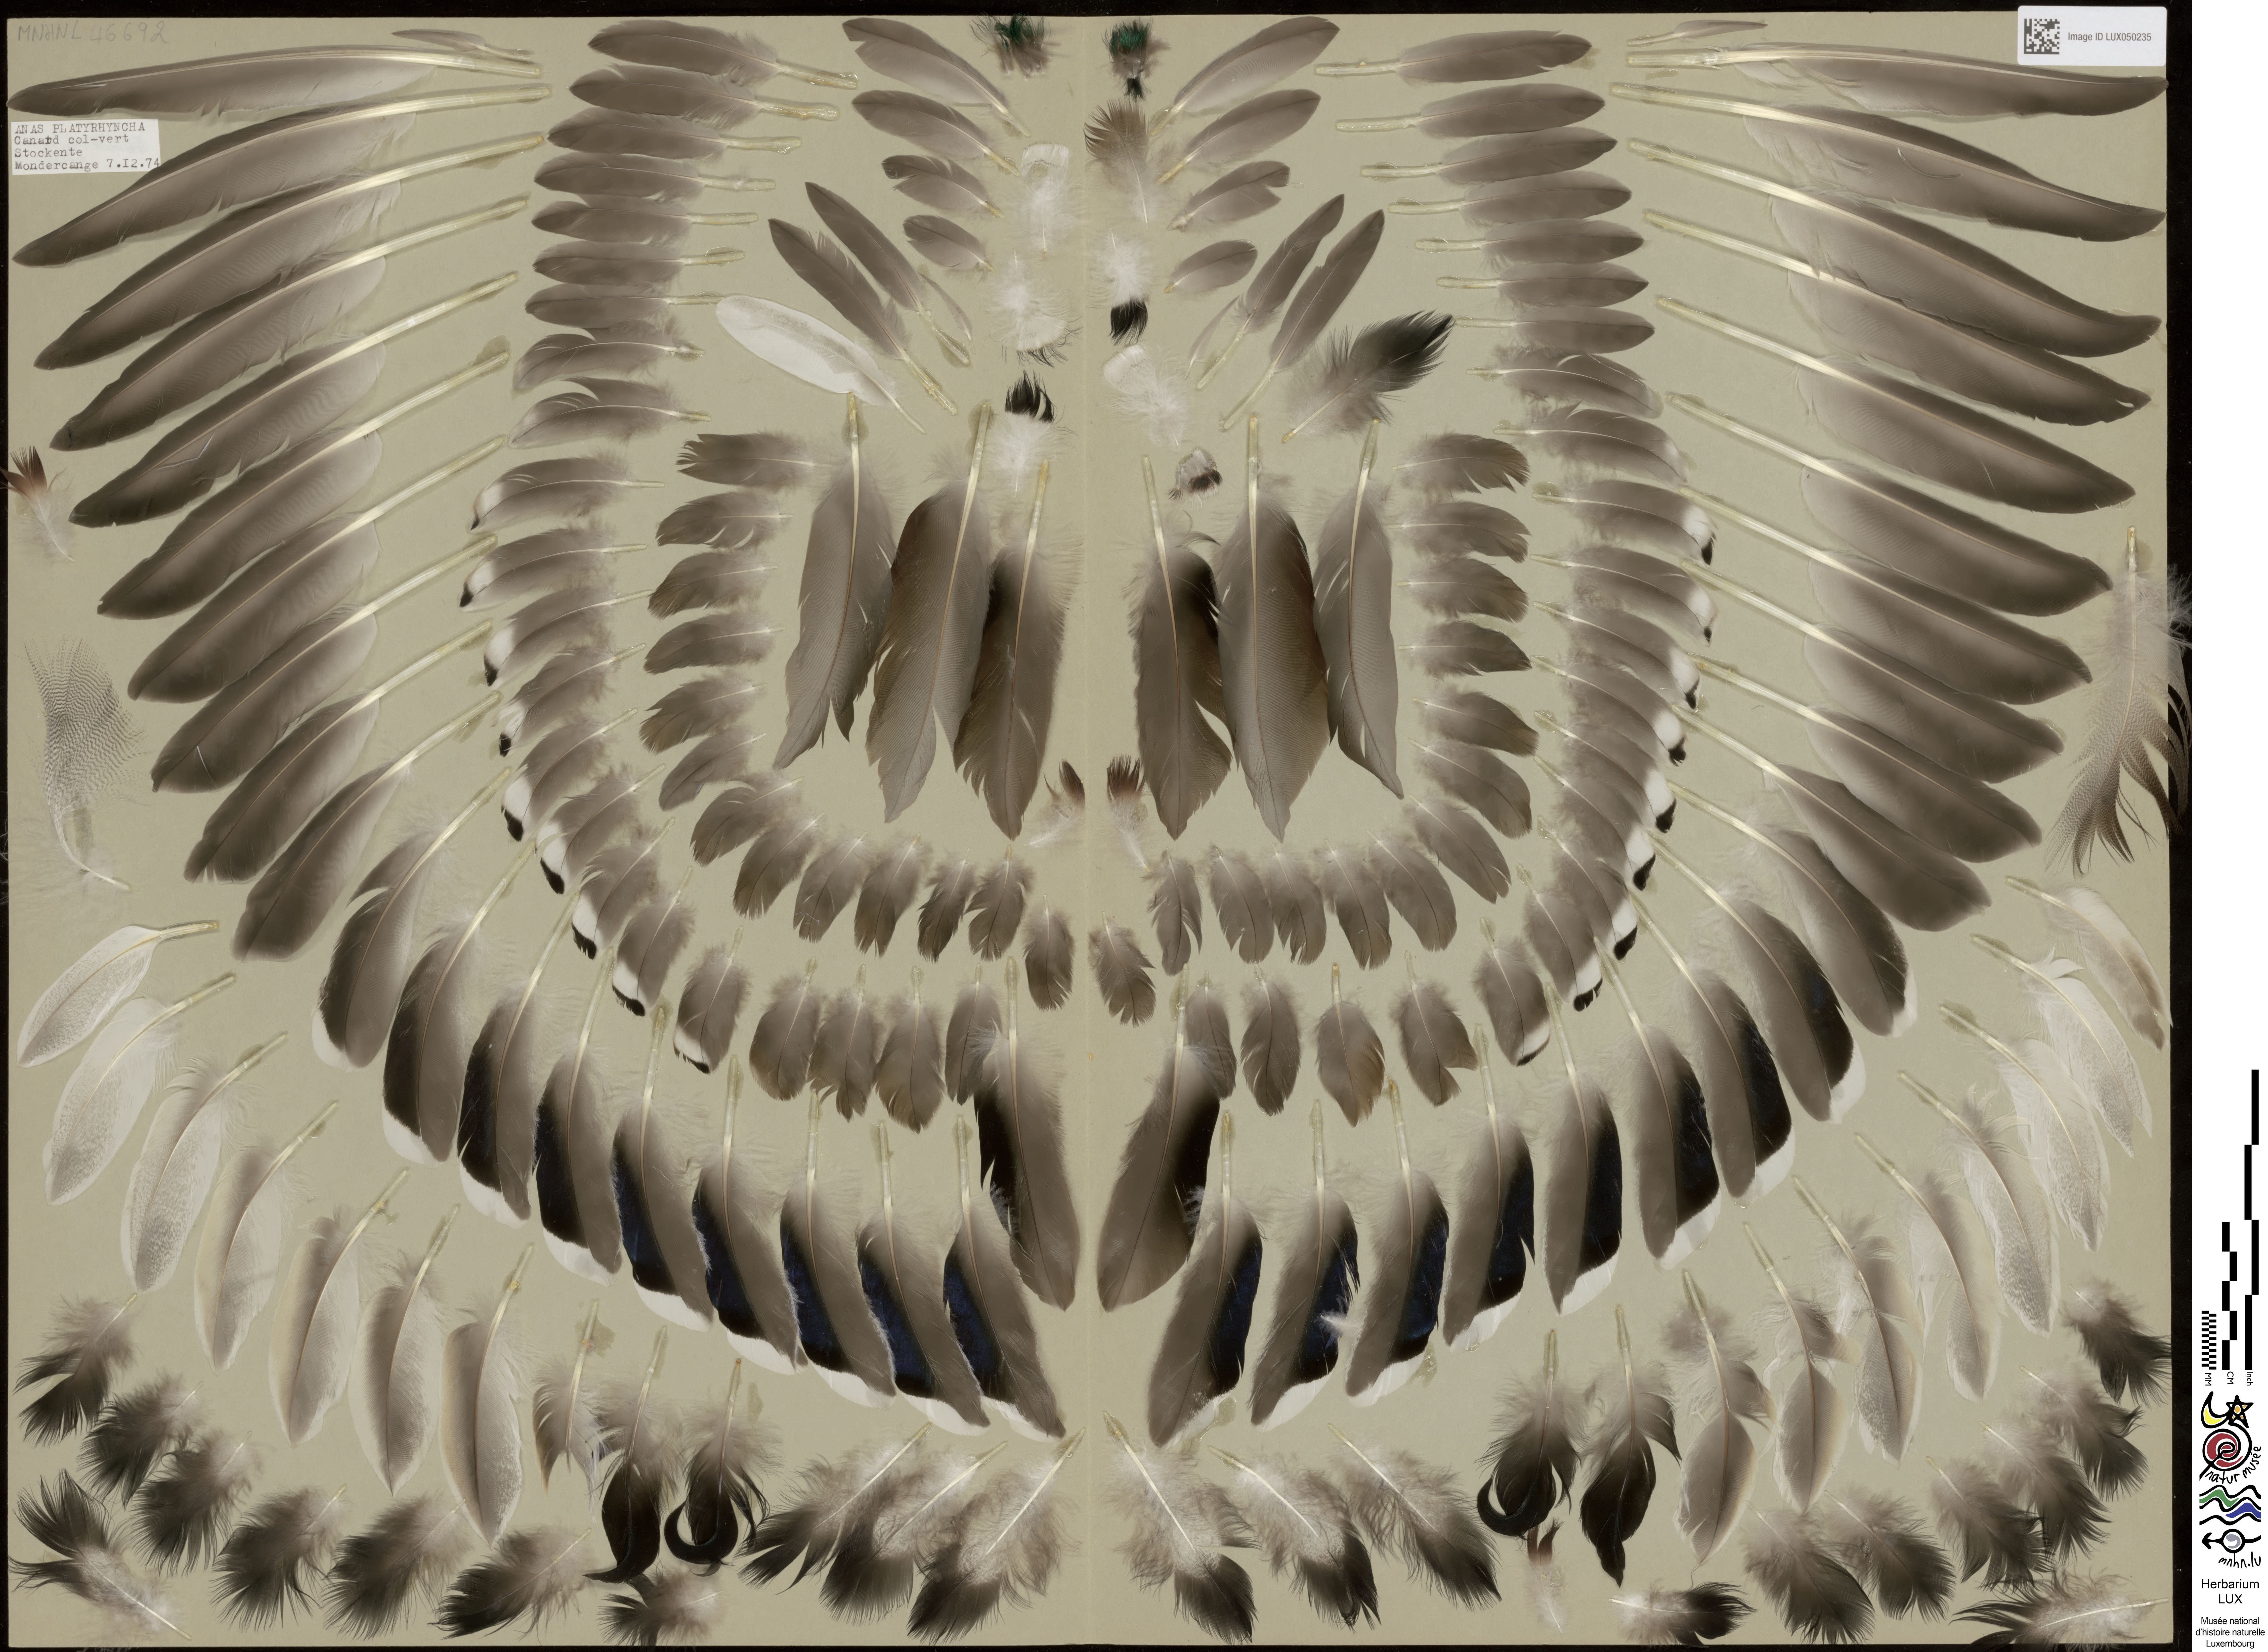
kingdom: Animalia
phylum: Chordata
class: Aves
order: Anseriformes
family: Anatidae
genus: Anas
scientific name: Anas platyrhynchos
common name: Mallard
